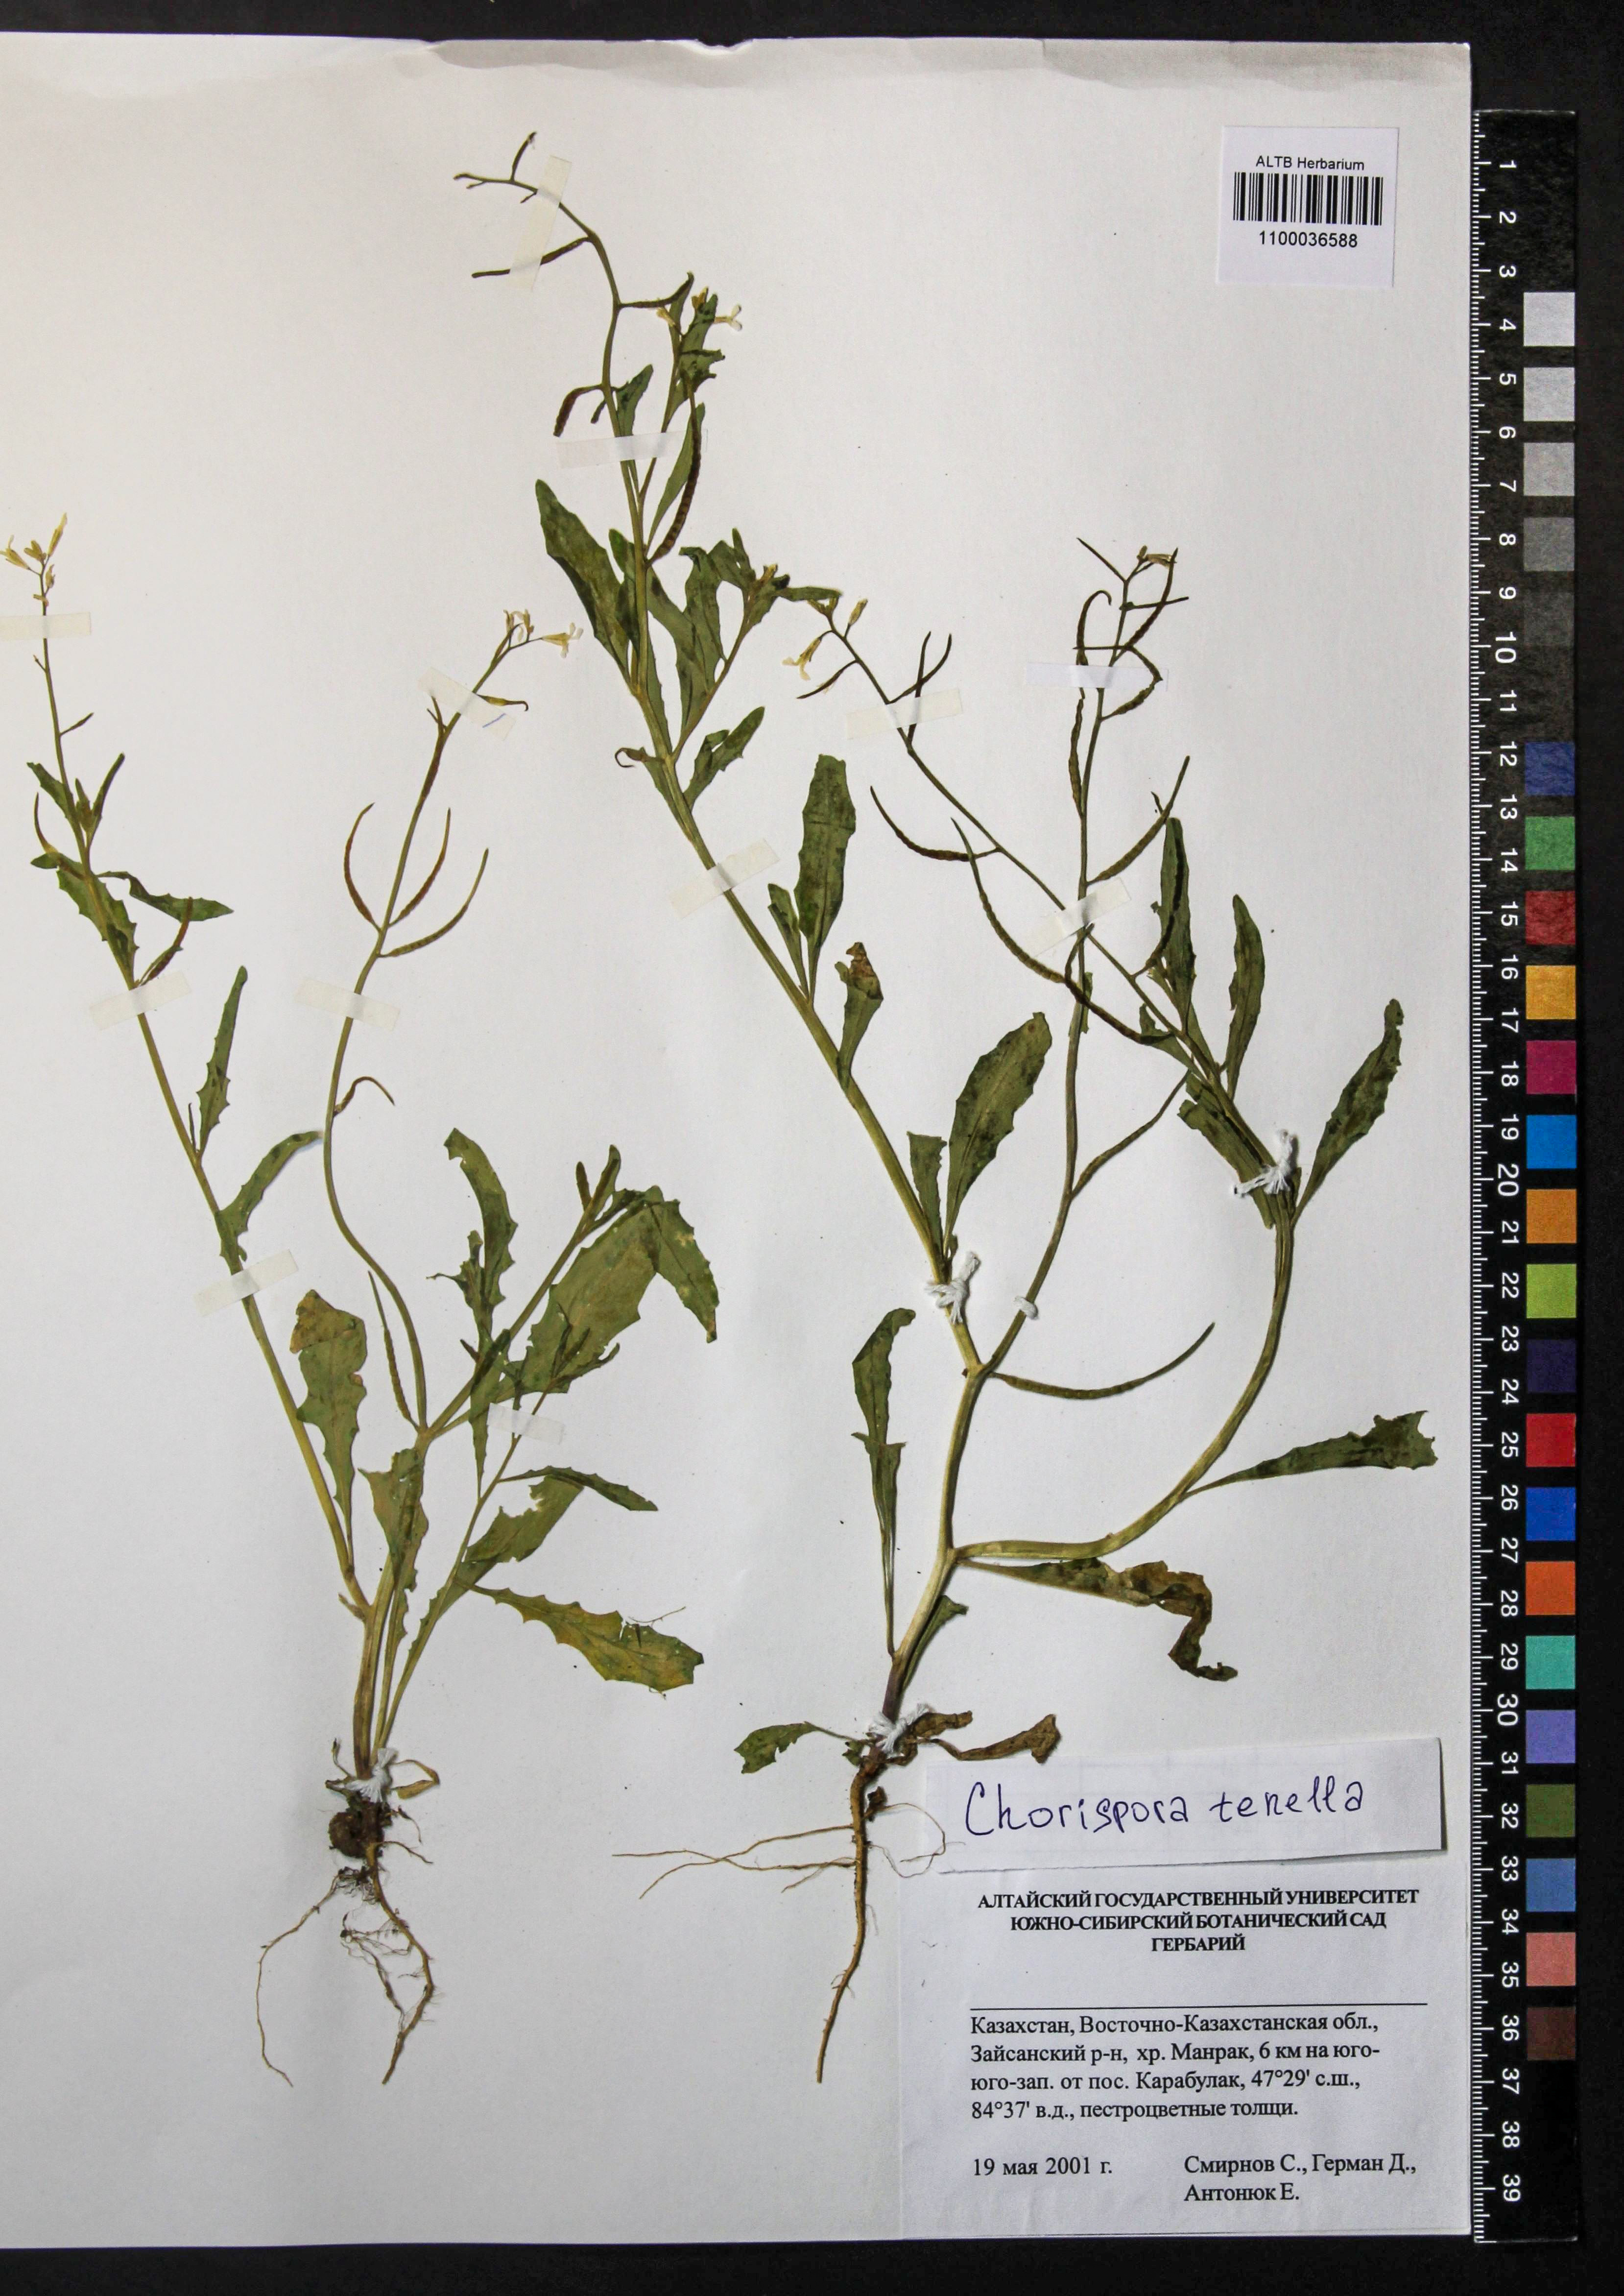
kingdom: Plantae
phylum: Tracheophyta
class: Magnoliopsida
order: Brassicales
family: Brassicaceae
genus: Chorispora
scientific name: Chorispora tenella
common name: Crossflower
